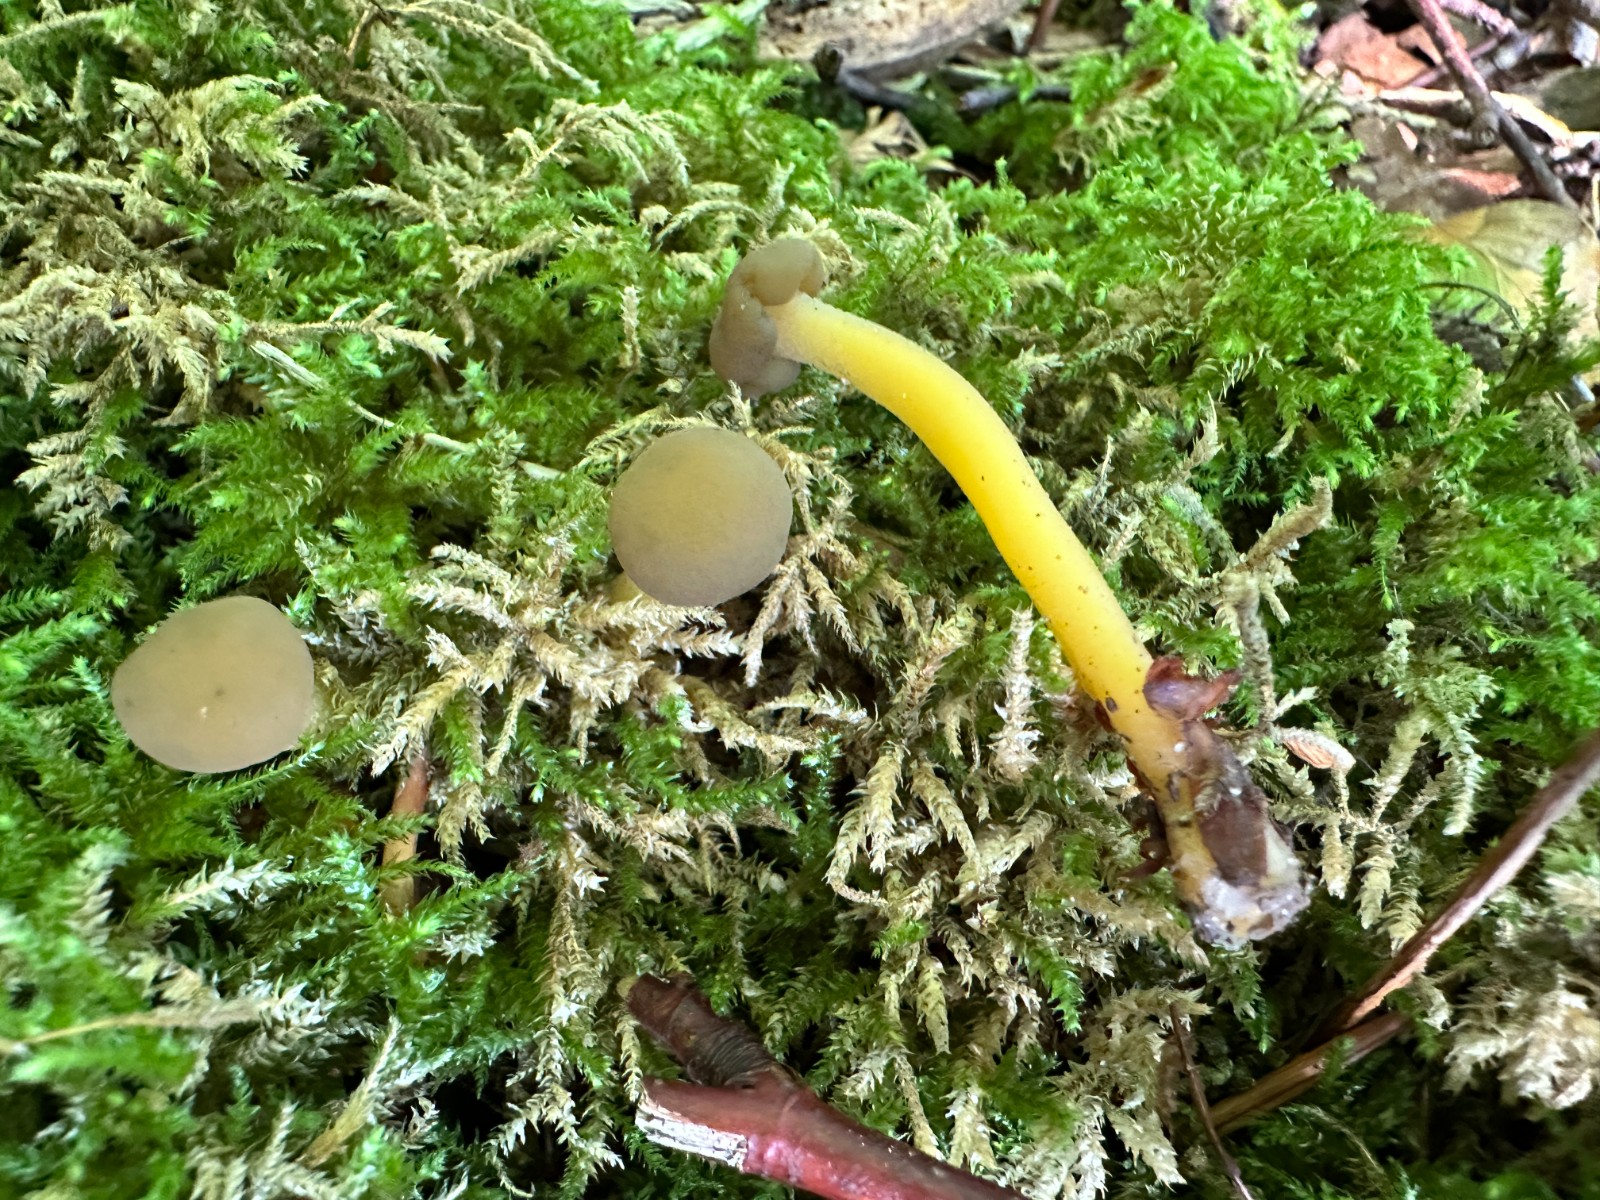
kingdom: Fungi
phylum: Ascomycota
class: Leotiomycetes
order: Leotiales
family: Leotiaceae
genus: Leotia
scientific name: Leotia lubrica
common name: ravsvamp
